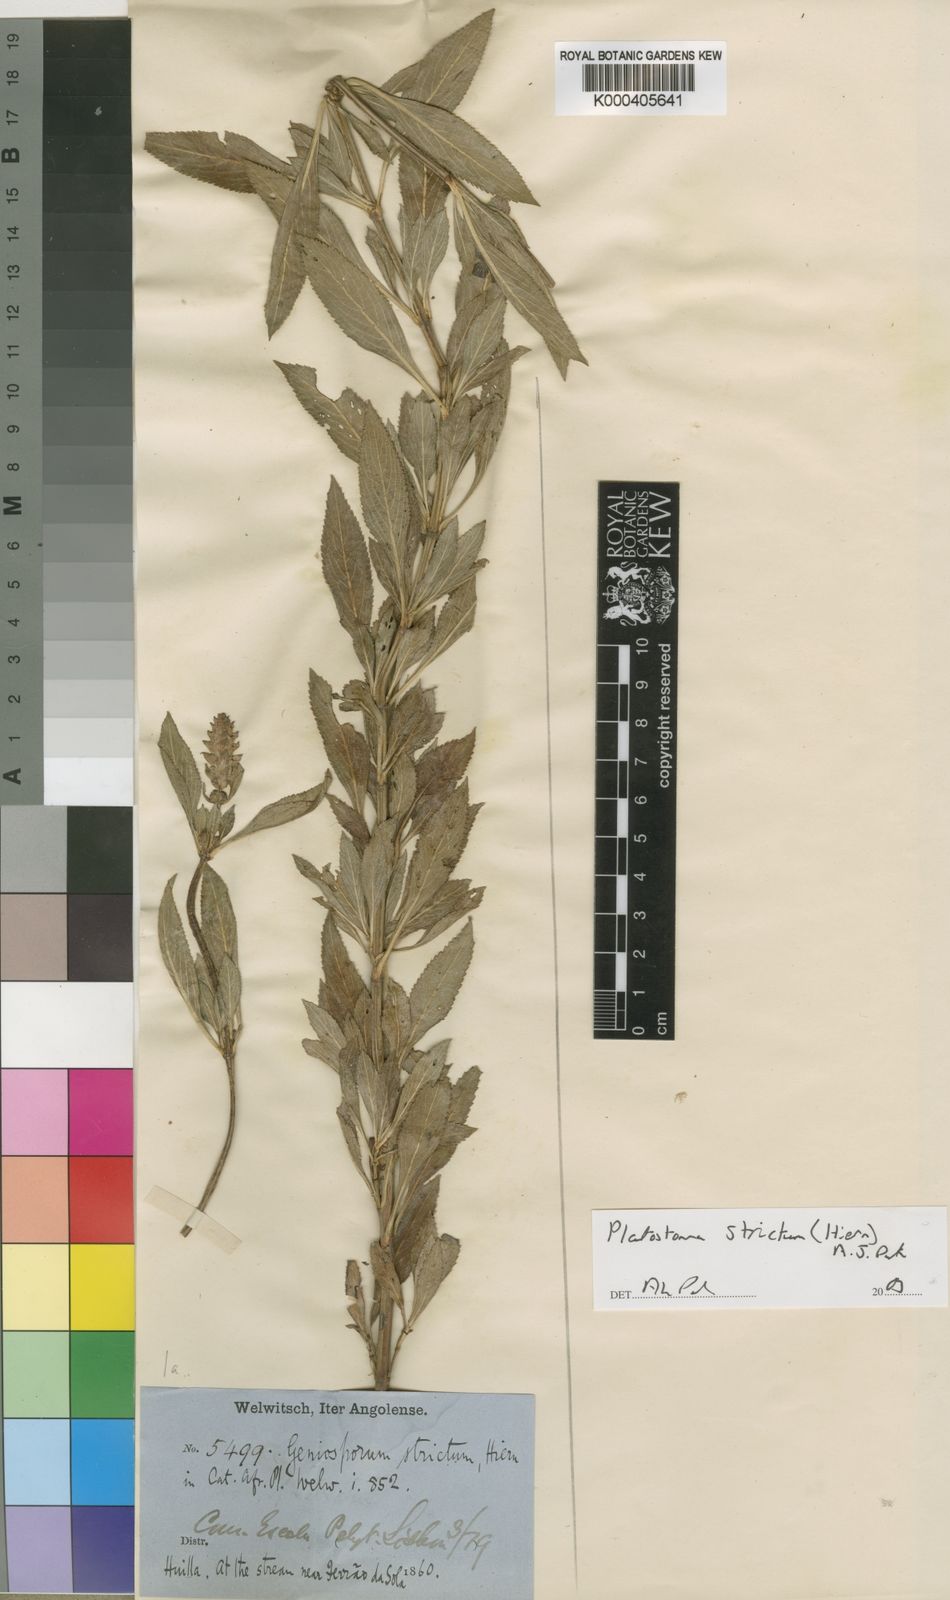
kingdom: Plantae
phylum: Tracheophyta
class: Magnoliopsida
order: Lamiales
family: Lamiaceae
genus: Platostoma
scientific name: Platostoma strictum
